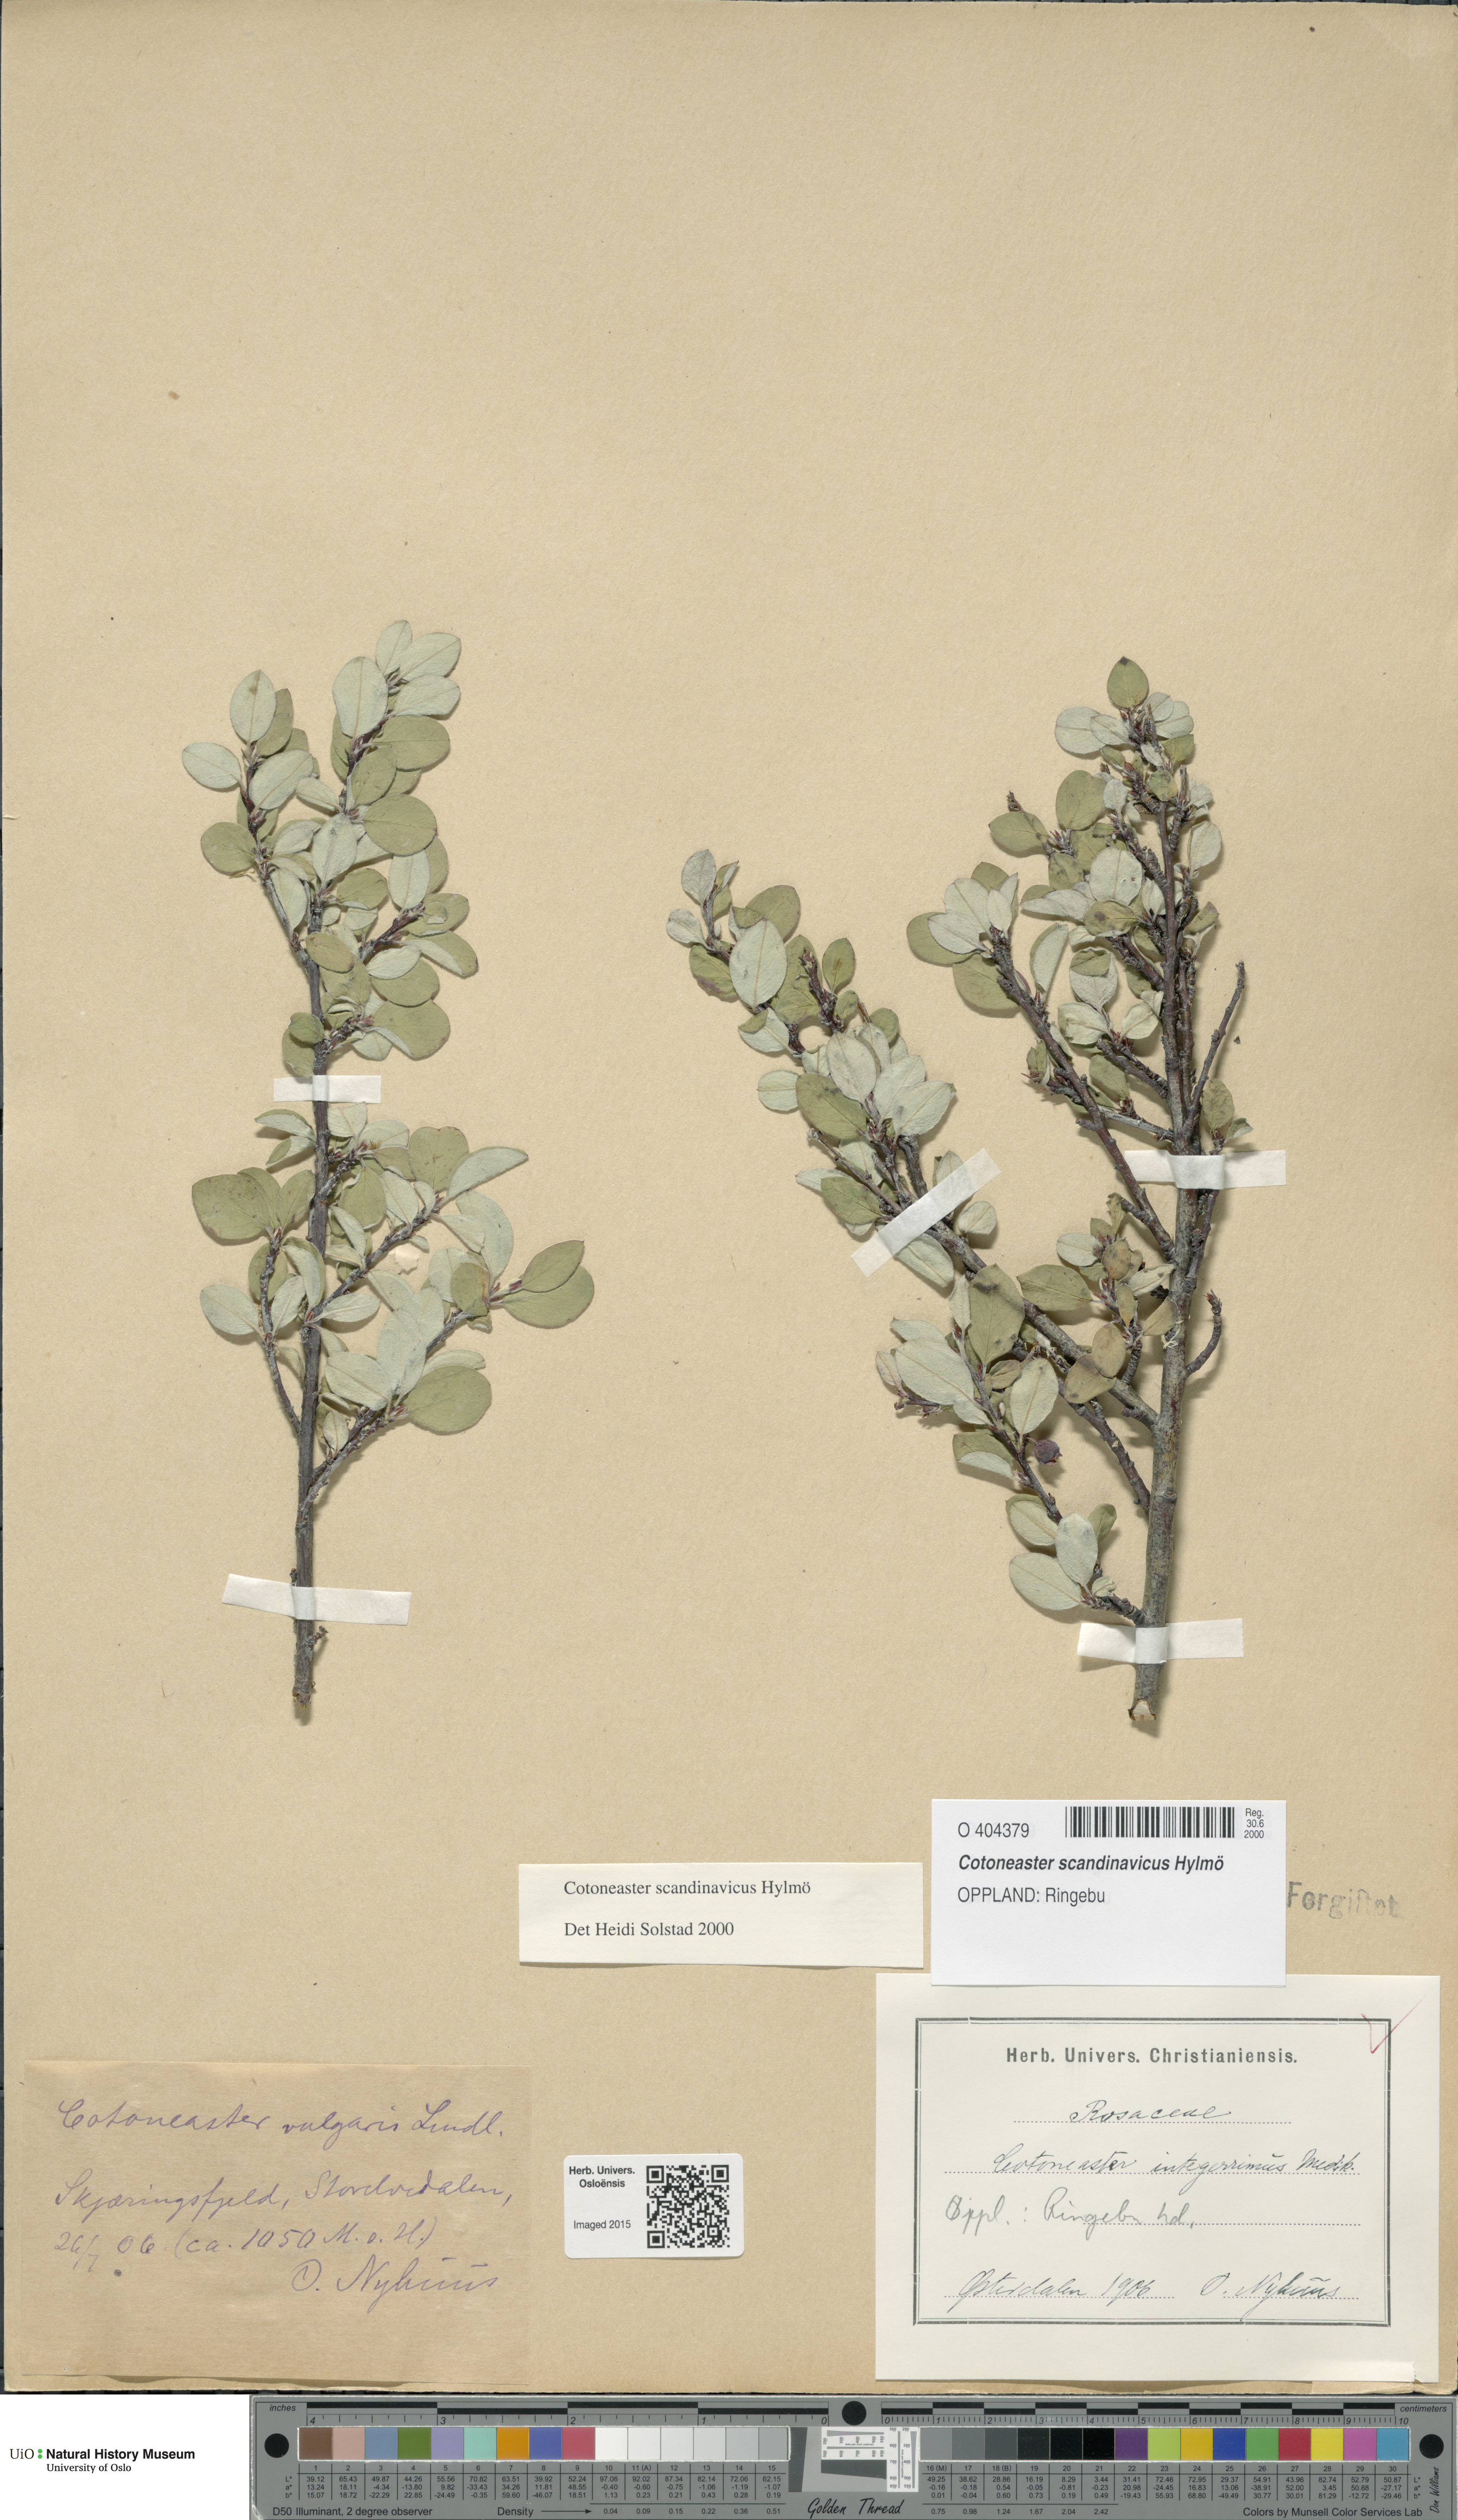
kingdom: Plantae
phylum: Tracheophyta
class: Magnoliopsida
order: Rosales
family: Rosaceae
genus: Cotoneaster
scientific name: Cotoneaster integerrimus
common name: Wild cotoneaster
